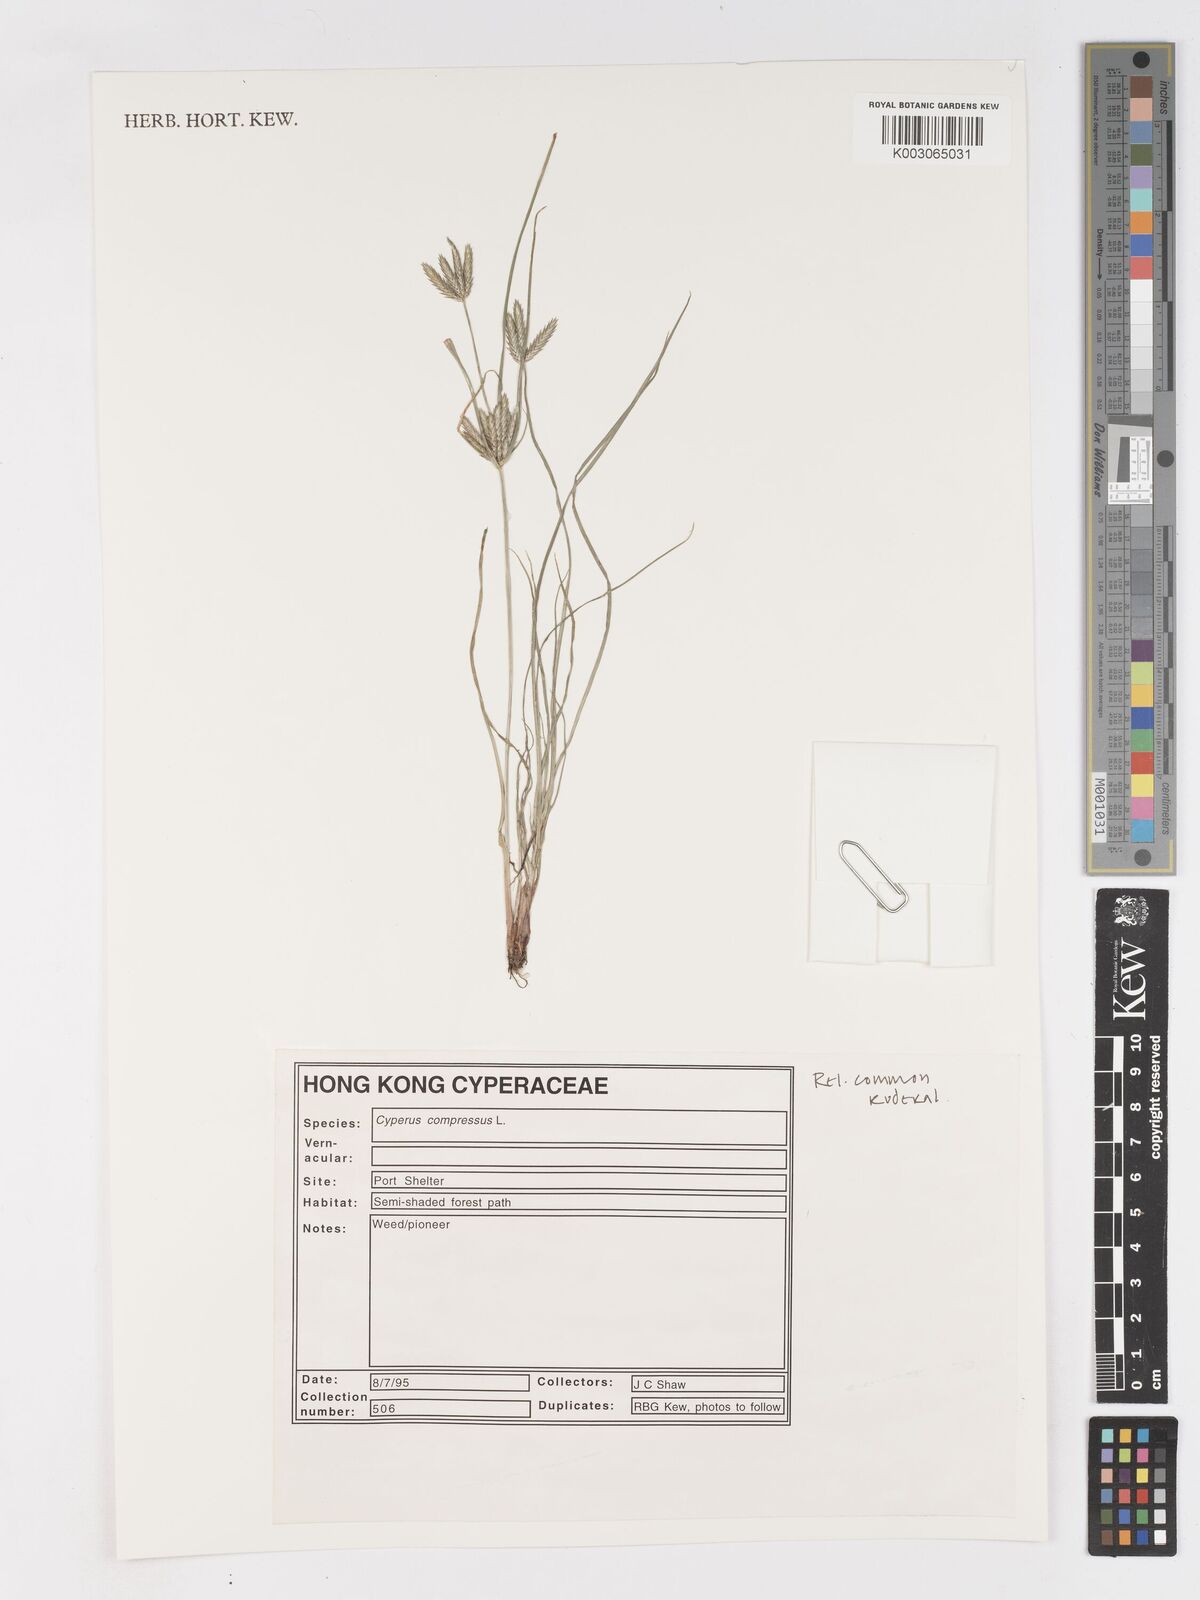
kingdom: Plantae
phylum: Tracheophyta
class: Liliopsida
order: Poales
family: Cyperaceae
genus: Cyperus
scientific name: Cyperus compressus
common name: Poorland flatsedge
